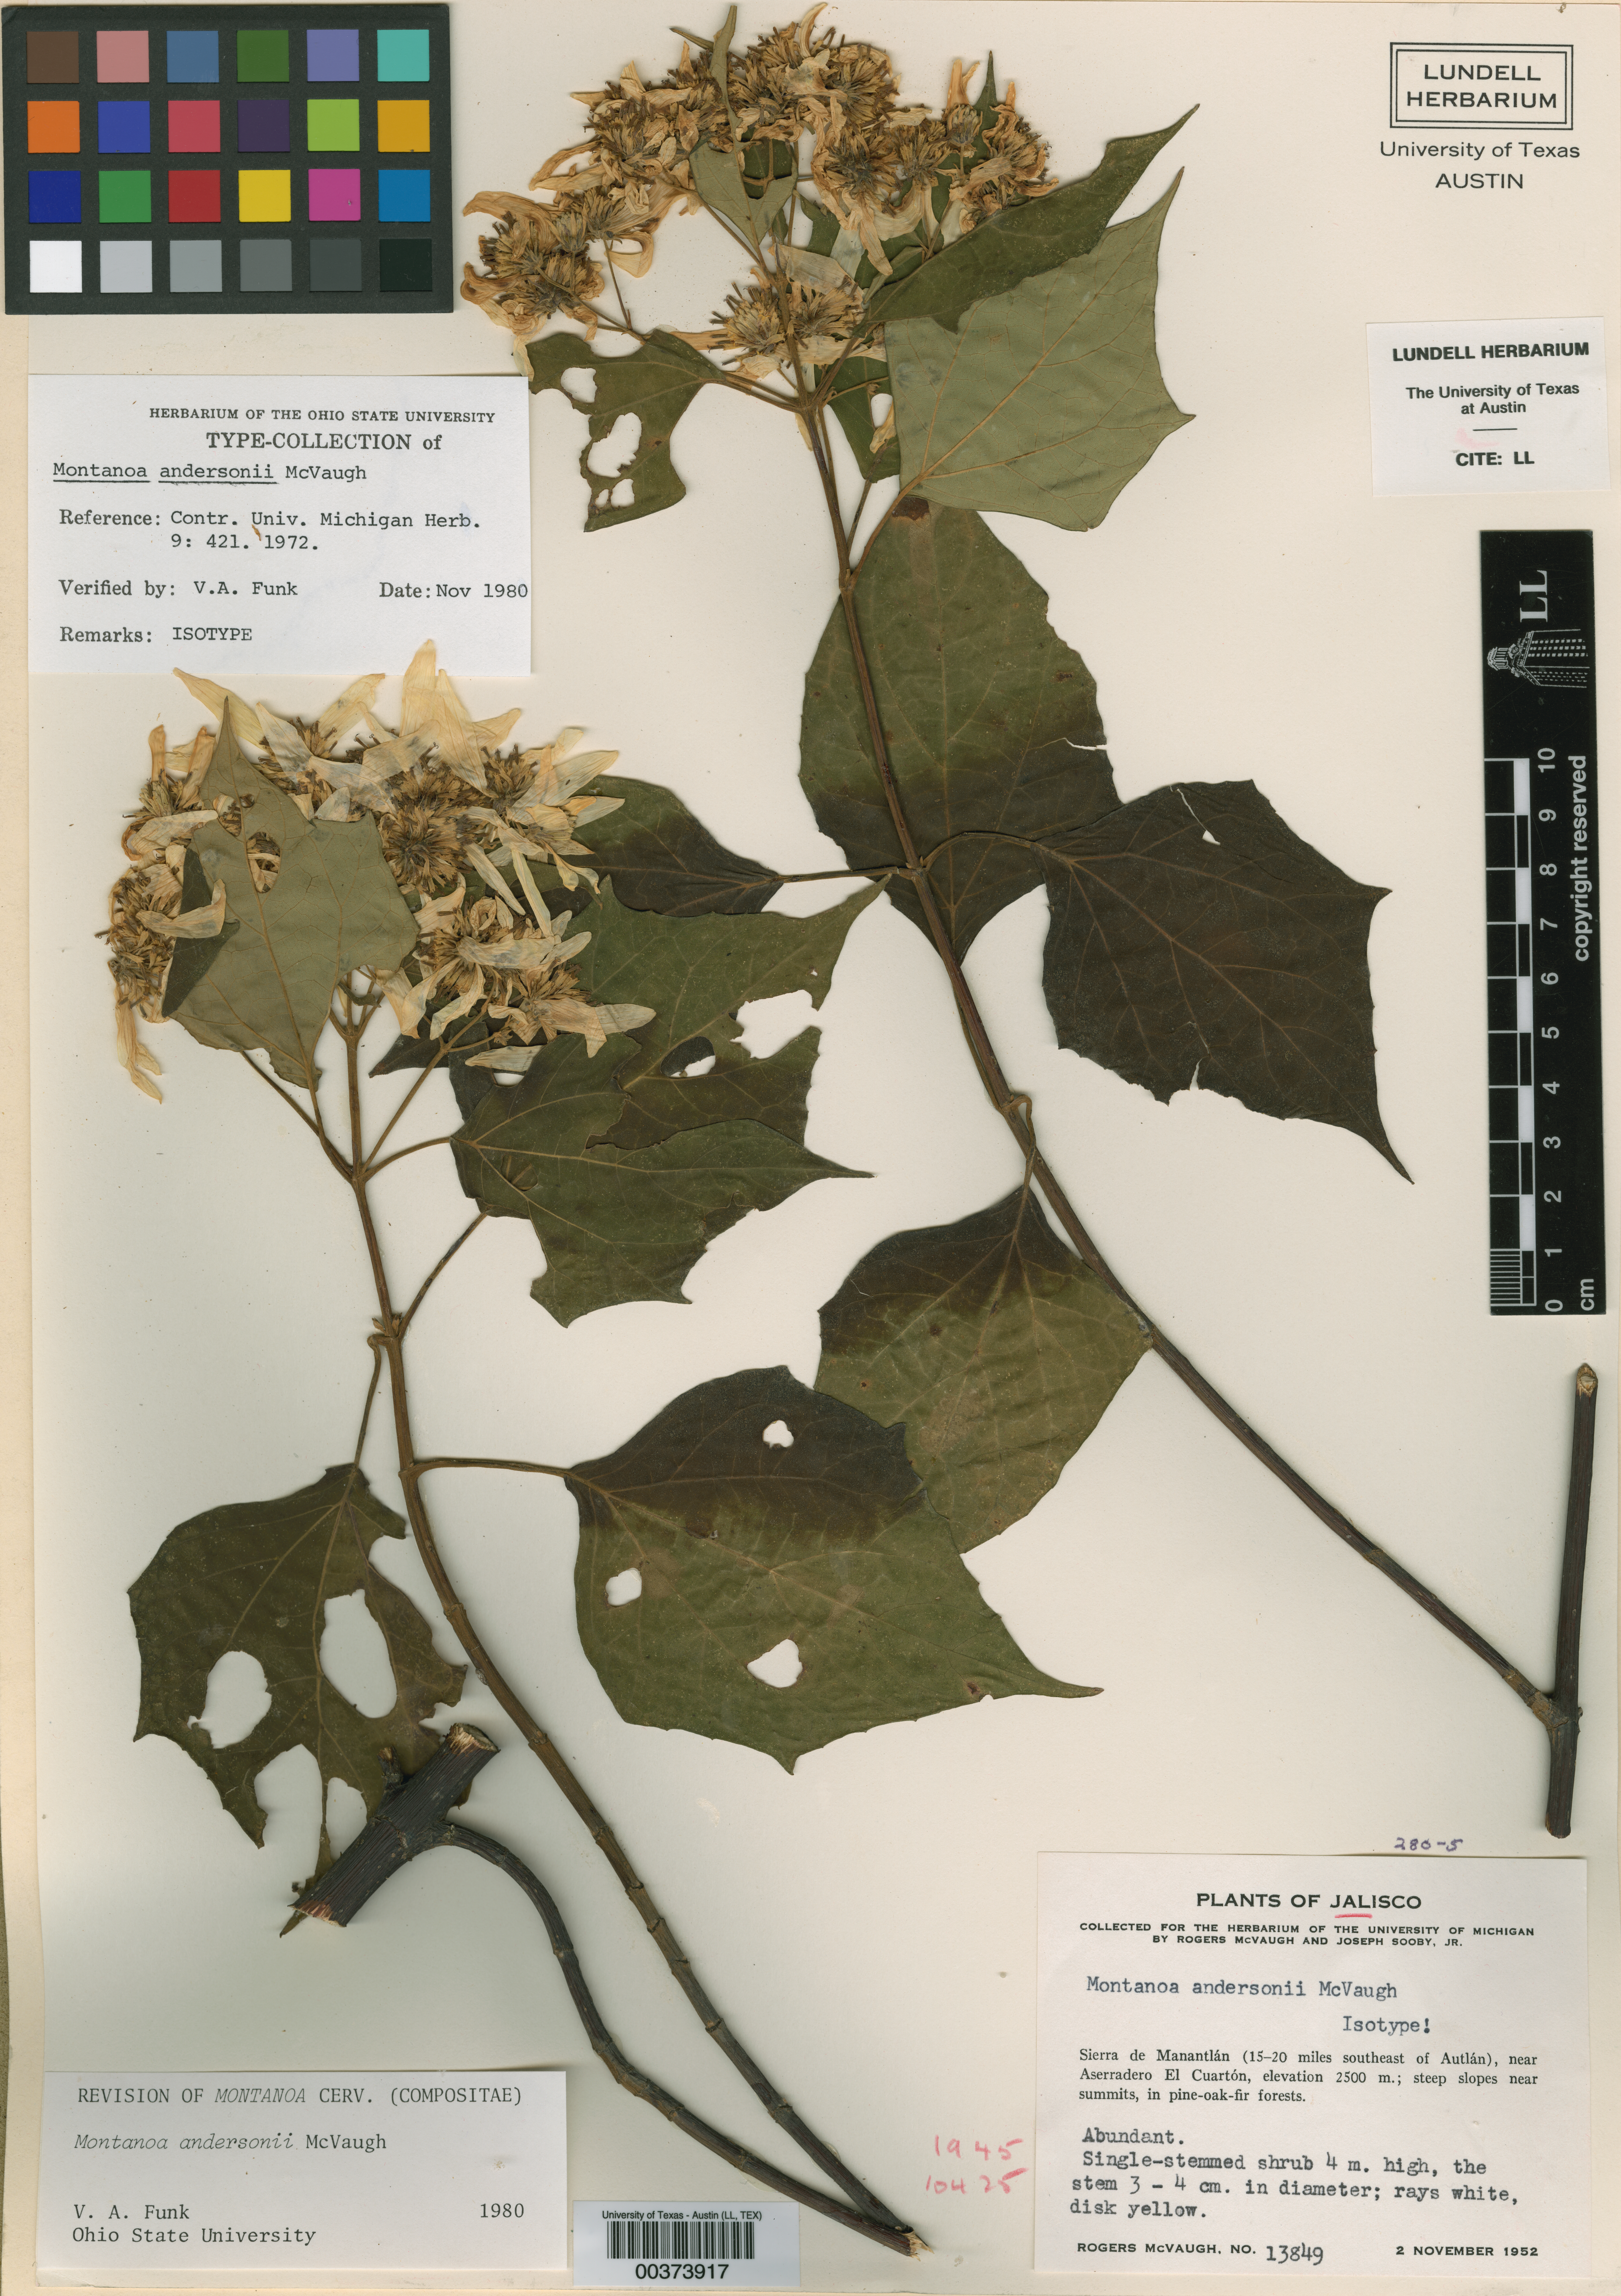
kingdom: Plantae
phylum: Tracheophyta
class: Magnoliopsida
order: Asterales
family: Asteraceae
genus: Montanoa
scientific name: Montanoa andersonii
